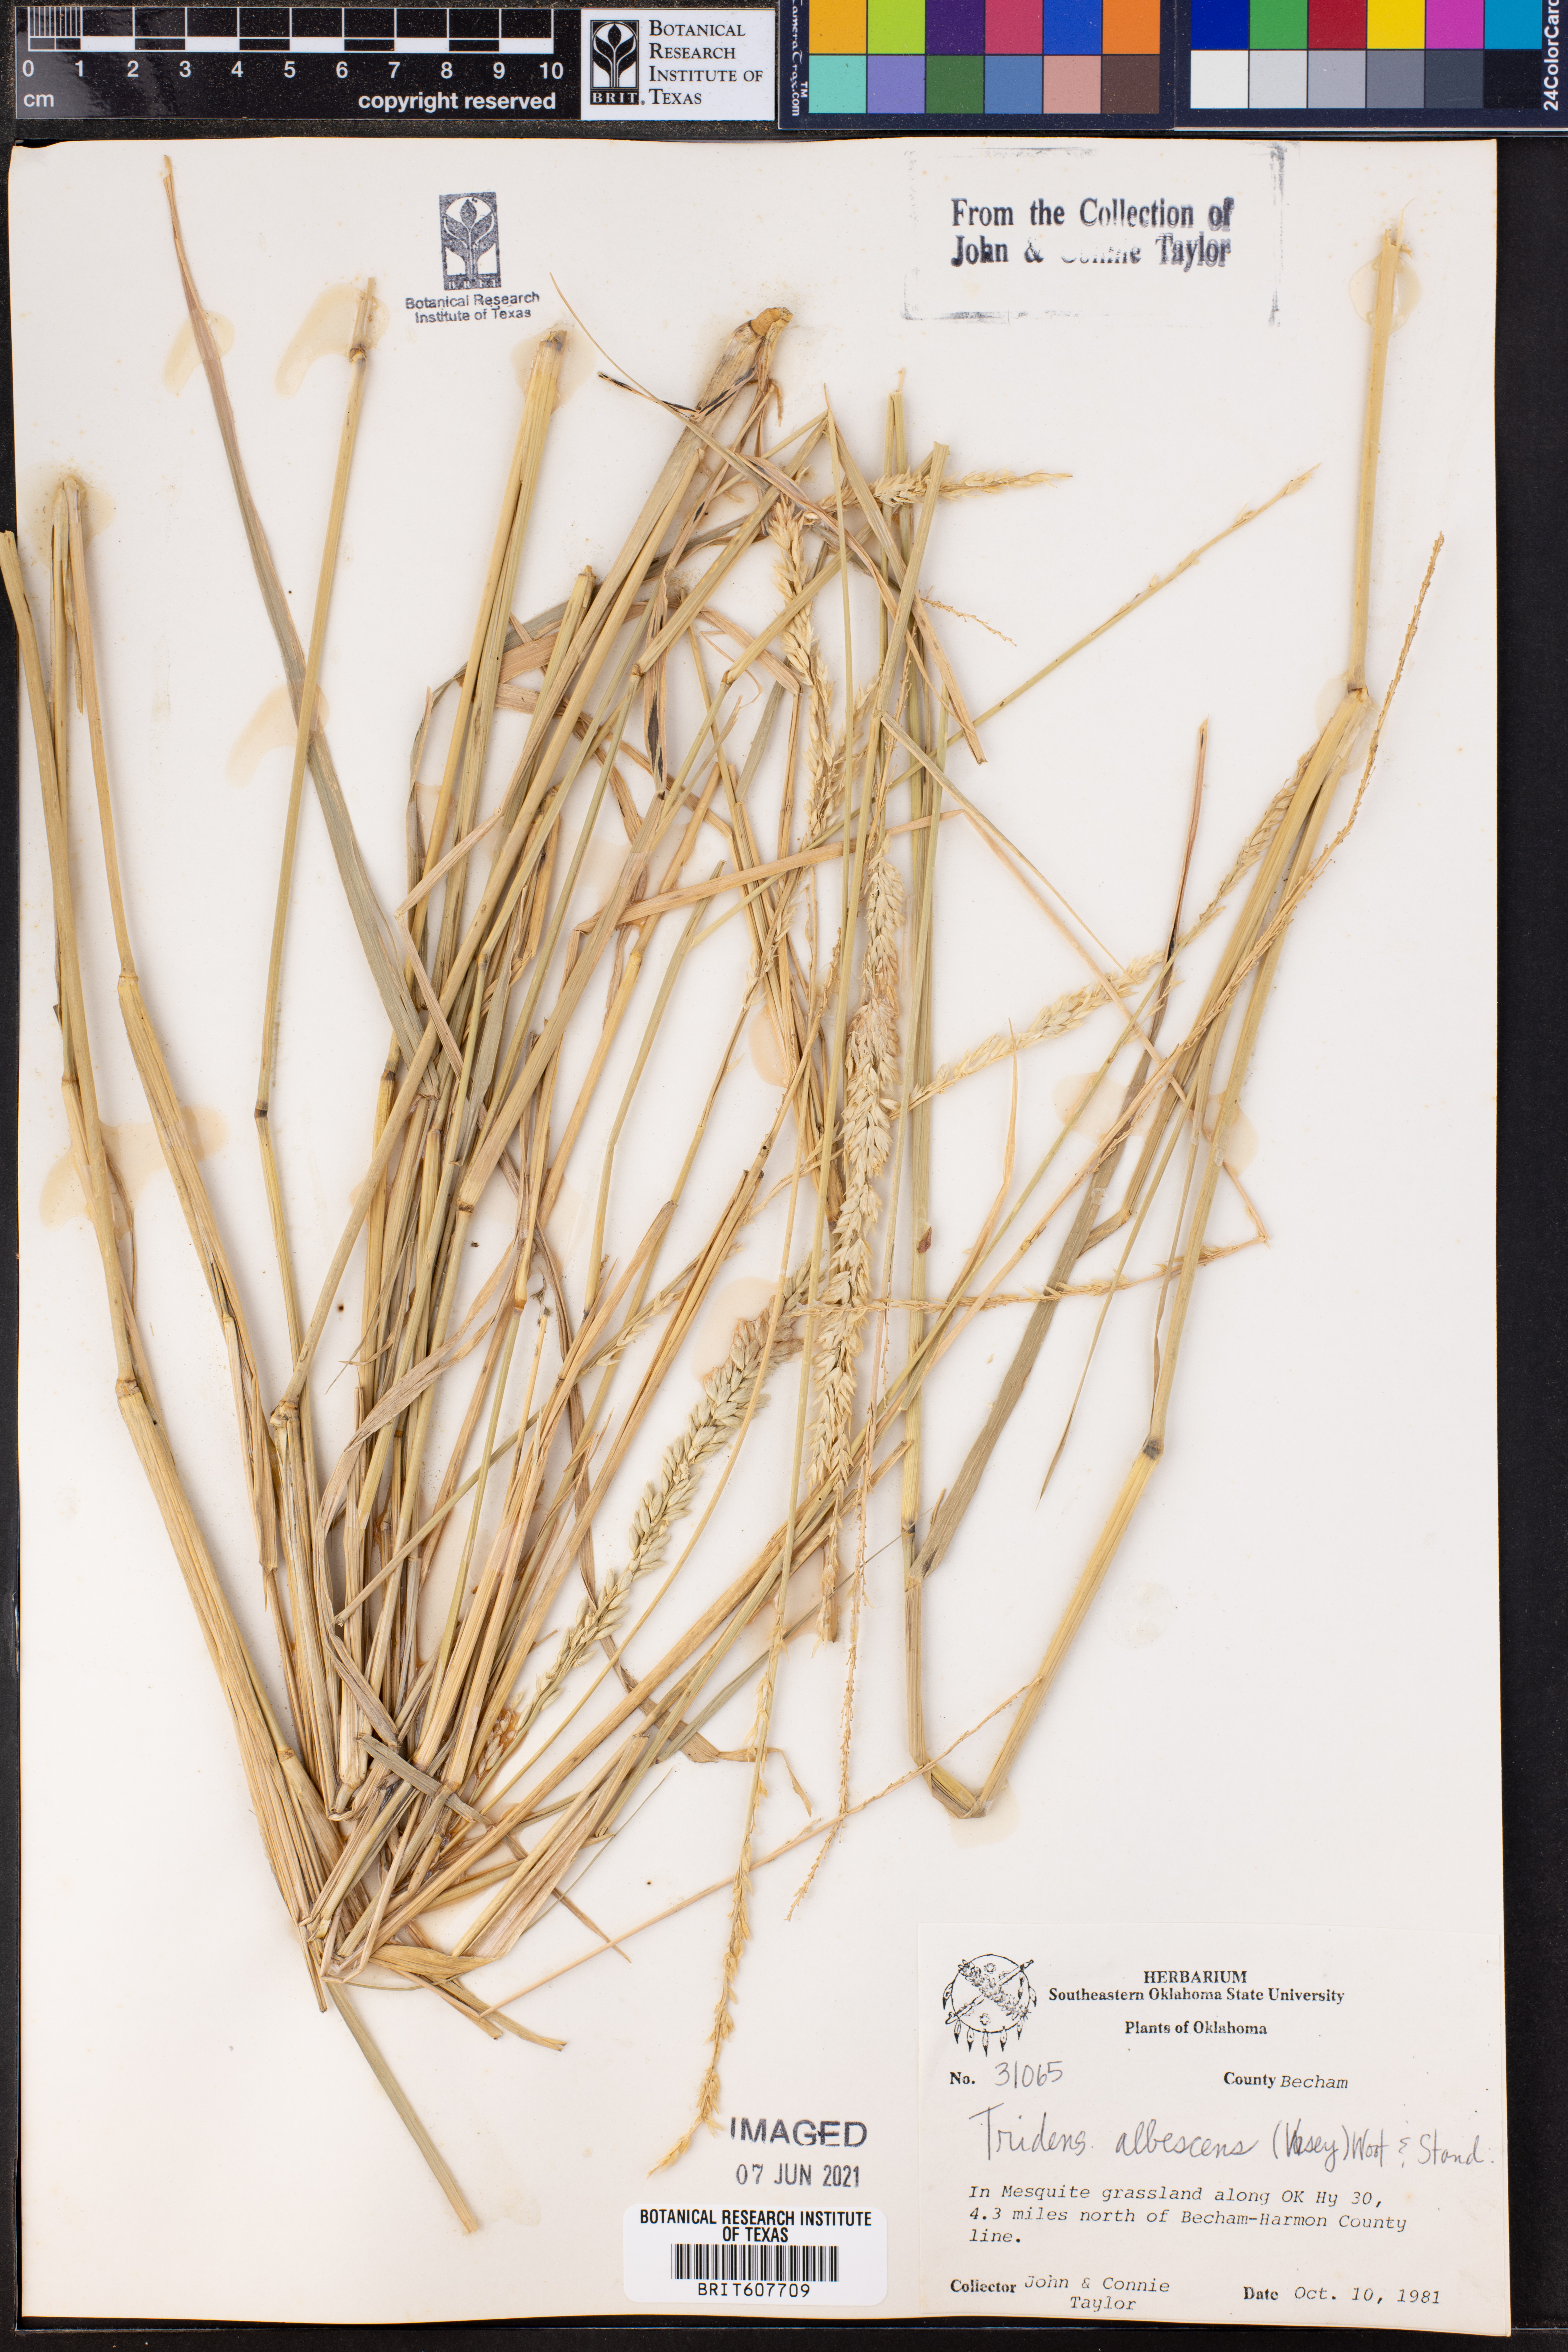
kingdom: Plantae
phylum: Tracheophyta
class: Liliopsida
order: Poales
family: Poaceae
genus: Tridens
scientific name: Tridens albescens
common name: White tridens
